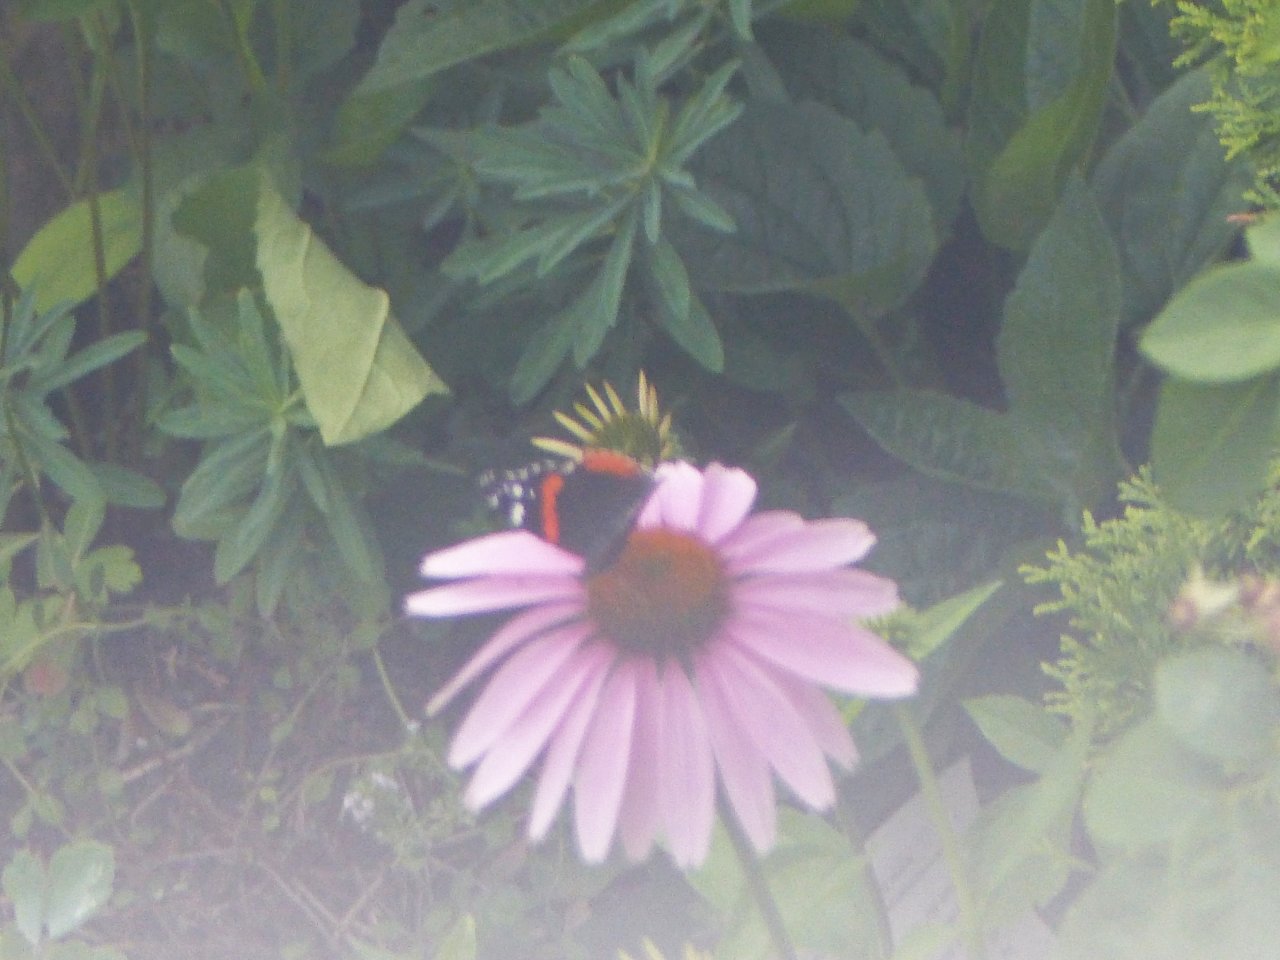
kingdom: Animalia
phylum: Arthropoda
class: Insecta
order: Lepidoptera
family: Nymphalidae
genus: Vanessa
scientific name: Vanessa atalanta
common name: Red Admiral
